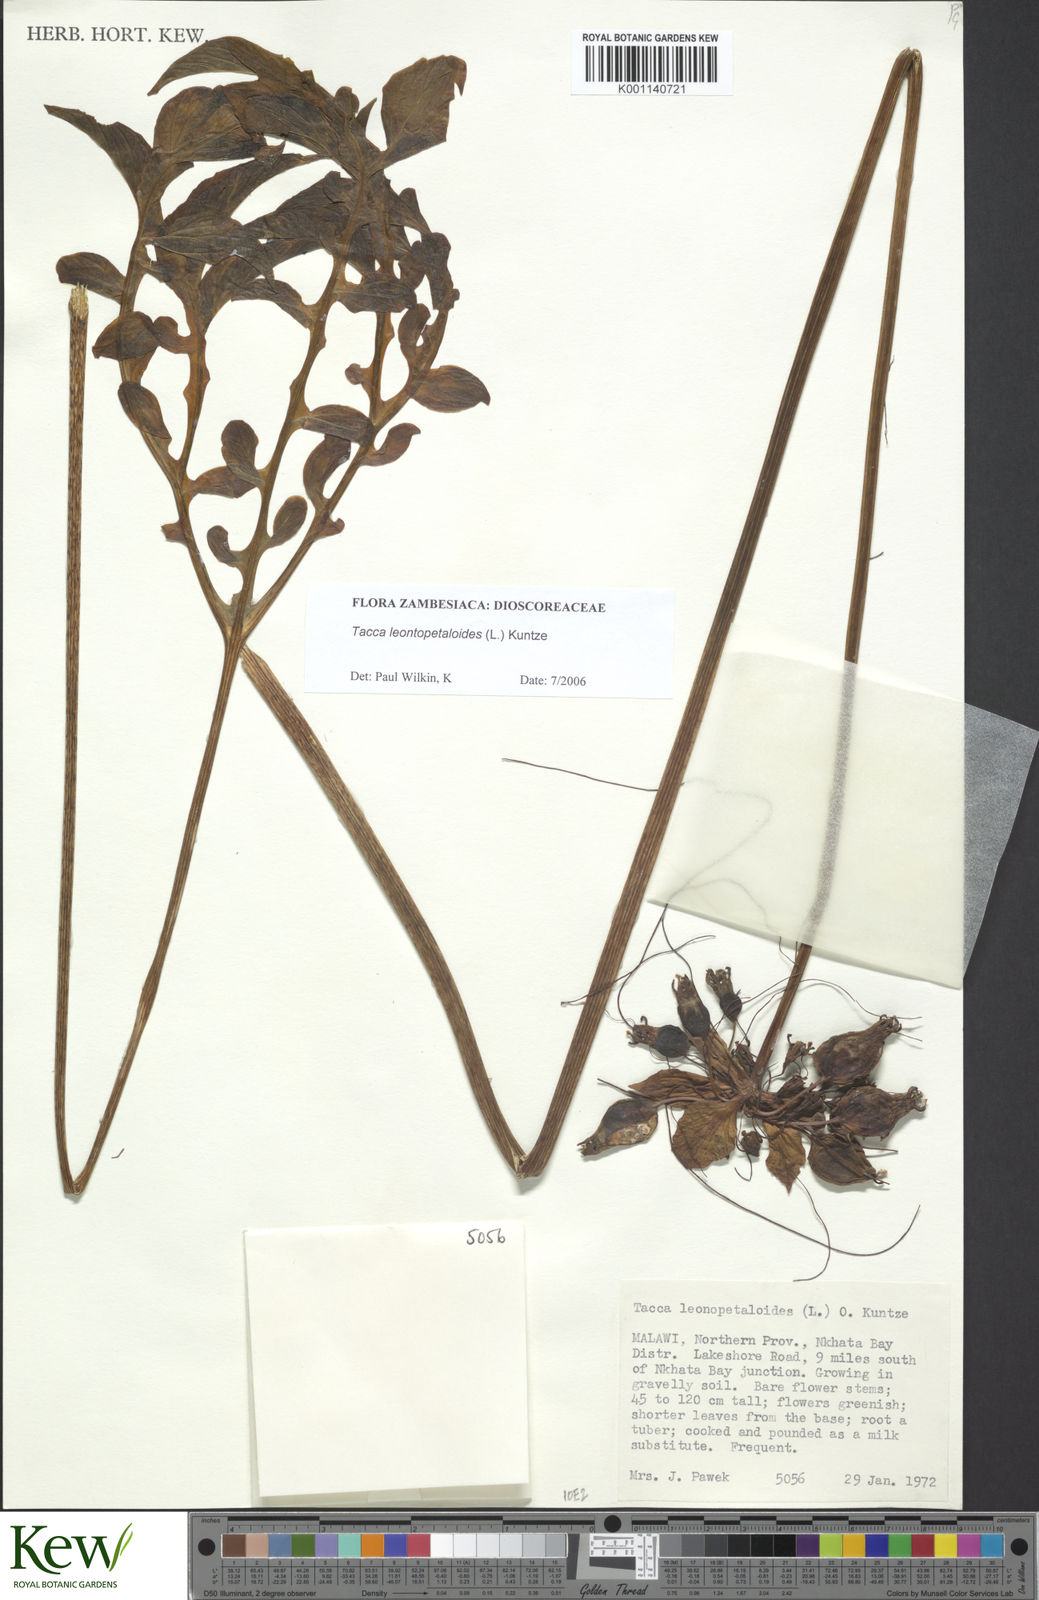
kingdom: Plantae
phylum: Tracheophyta
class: Liliopsida
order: Dioscoreales
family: Dioscoreaceae
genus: Tacca
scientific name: Tacca leontopetaloides
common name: Arrowroot
